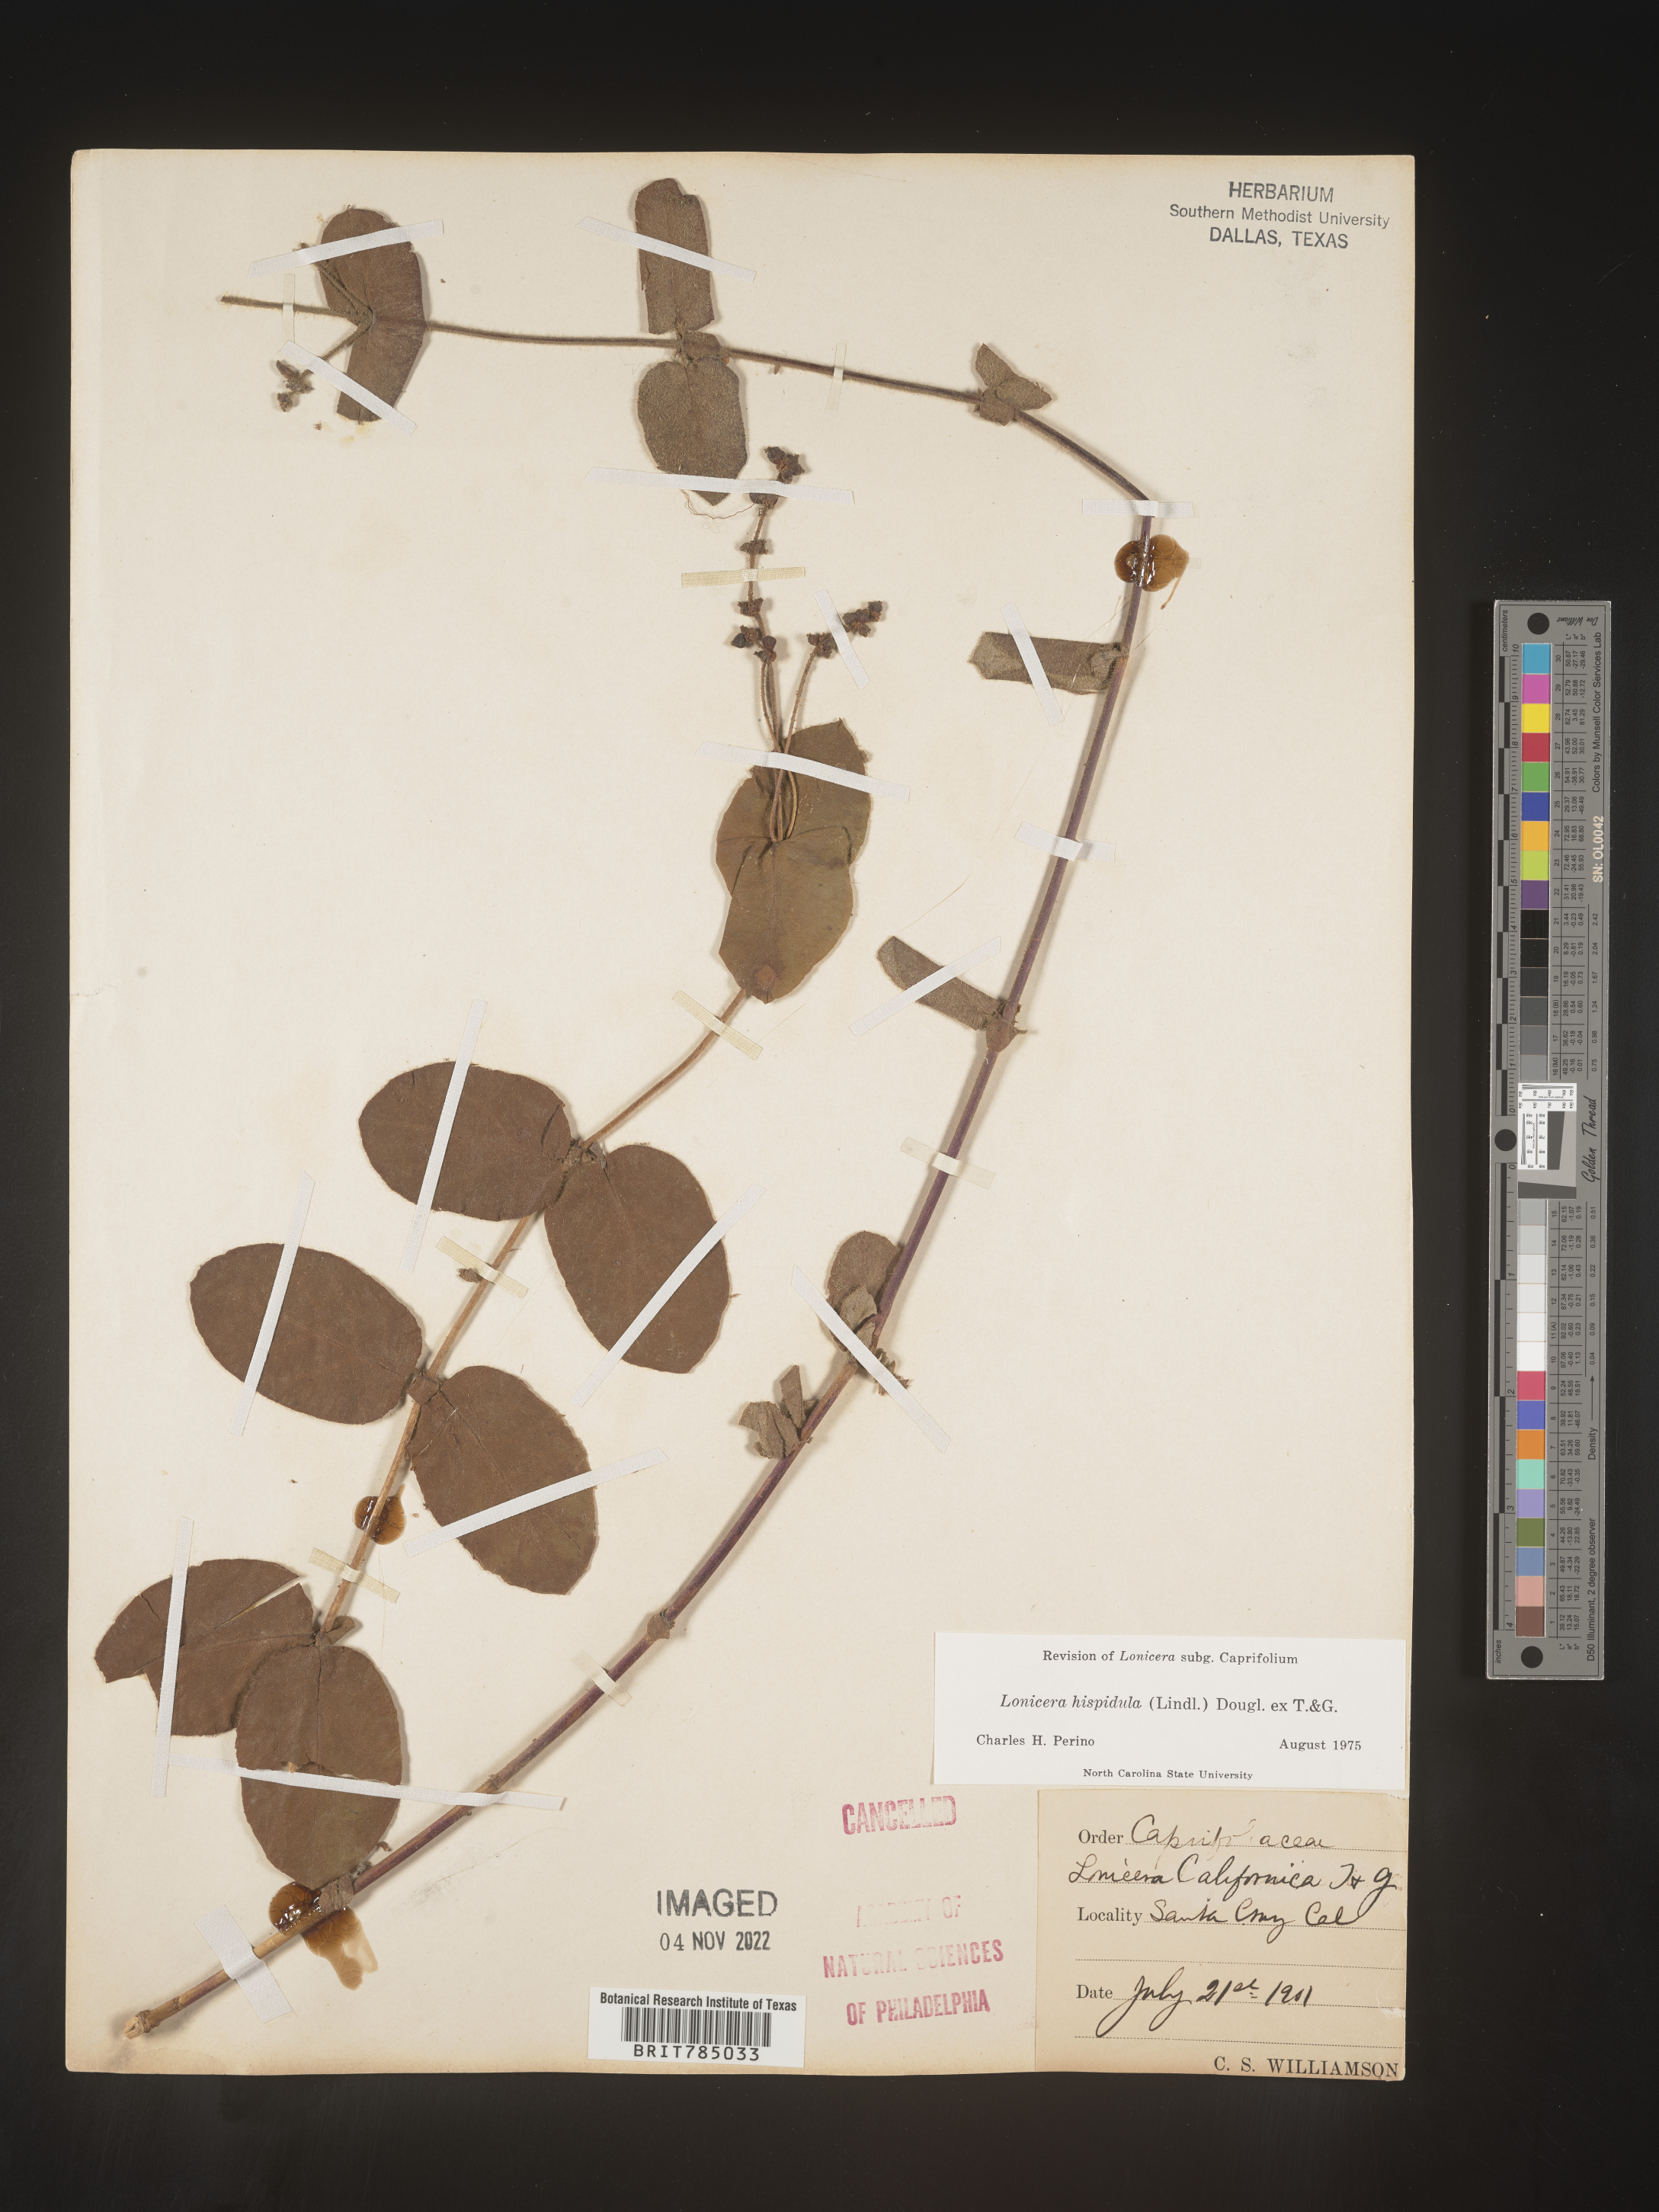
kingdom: Plantae
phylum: Tracheophyta
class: Magnoliopsida
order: Dipsacales
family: Caprifoliaceae
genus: Lonicera
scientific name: Lonicera
